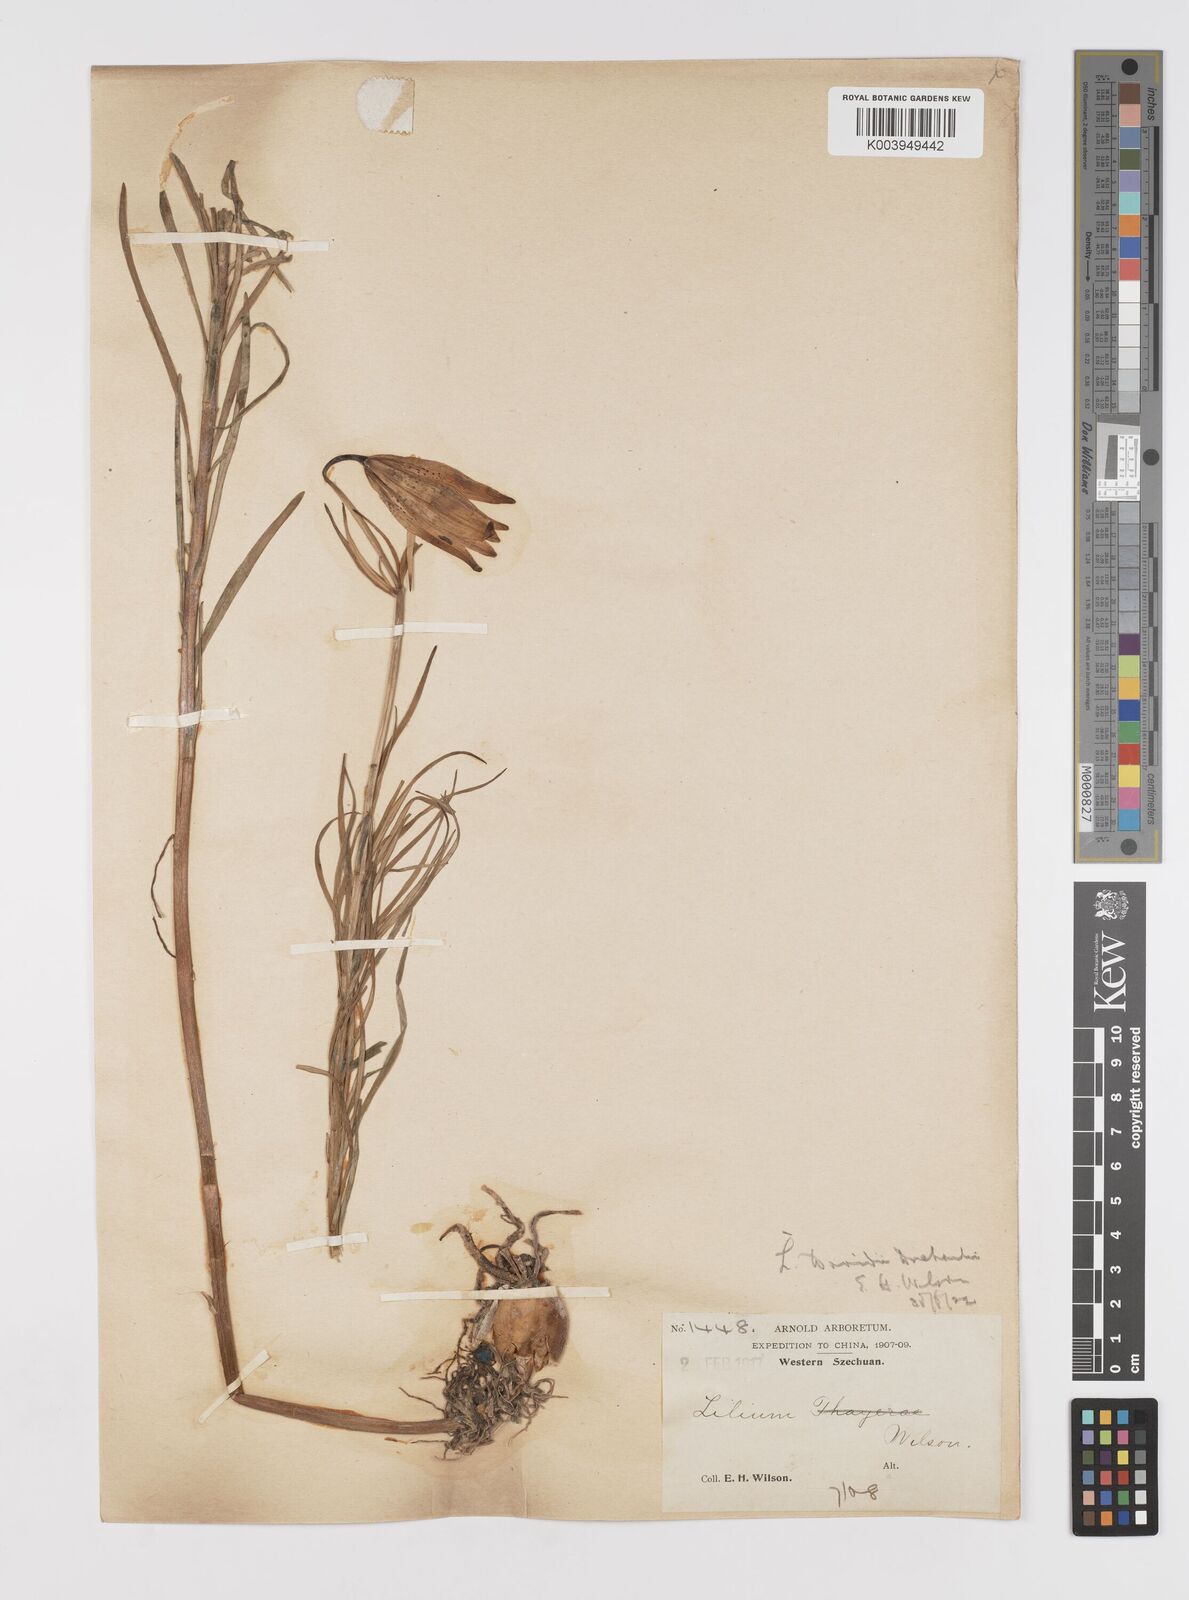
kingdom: Plantae
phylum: Tracheophyta
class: Liliopsida
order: Liliales
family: Liliaceae
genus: Lilium
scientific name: Lilium davidii
